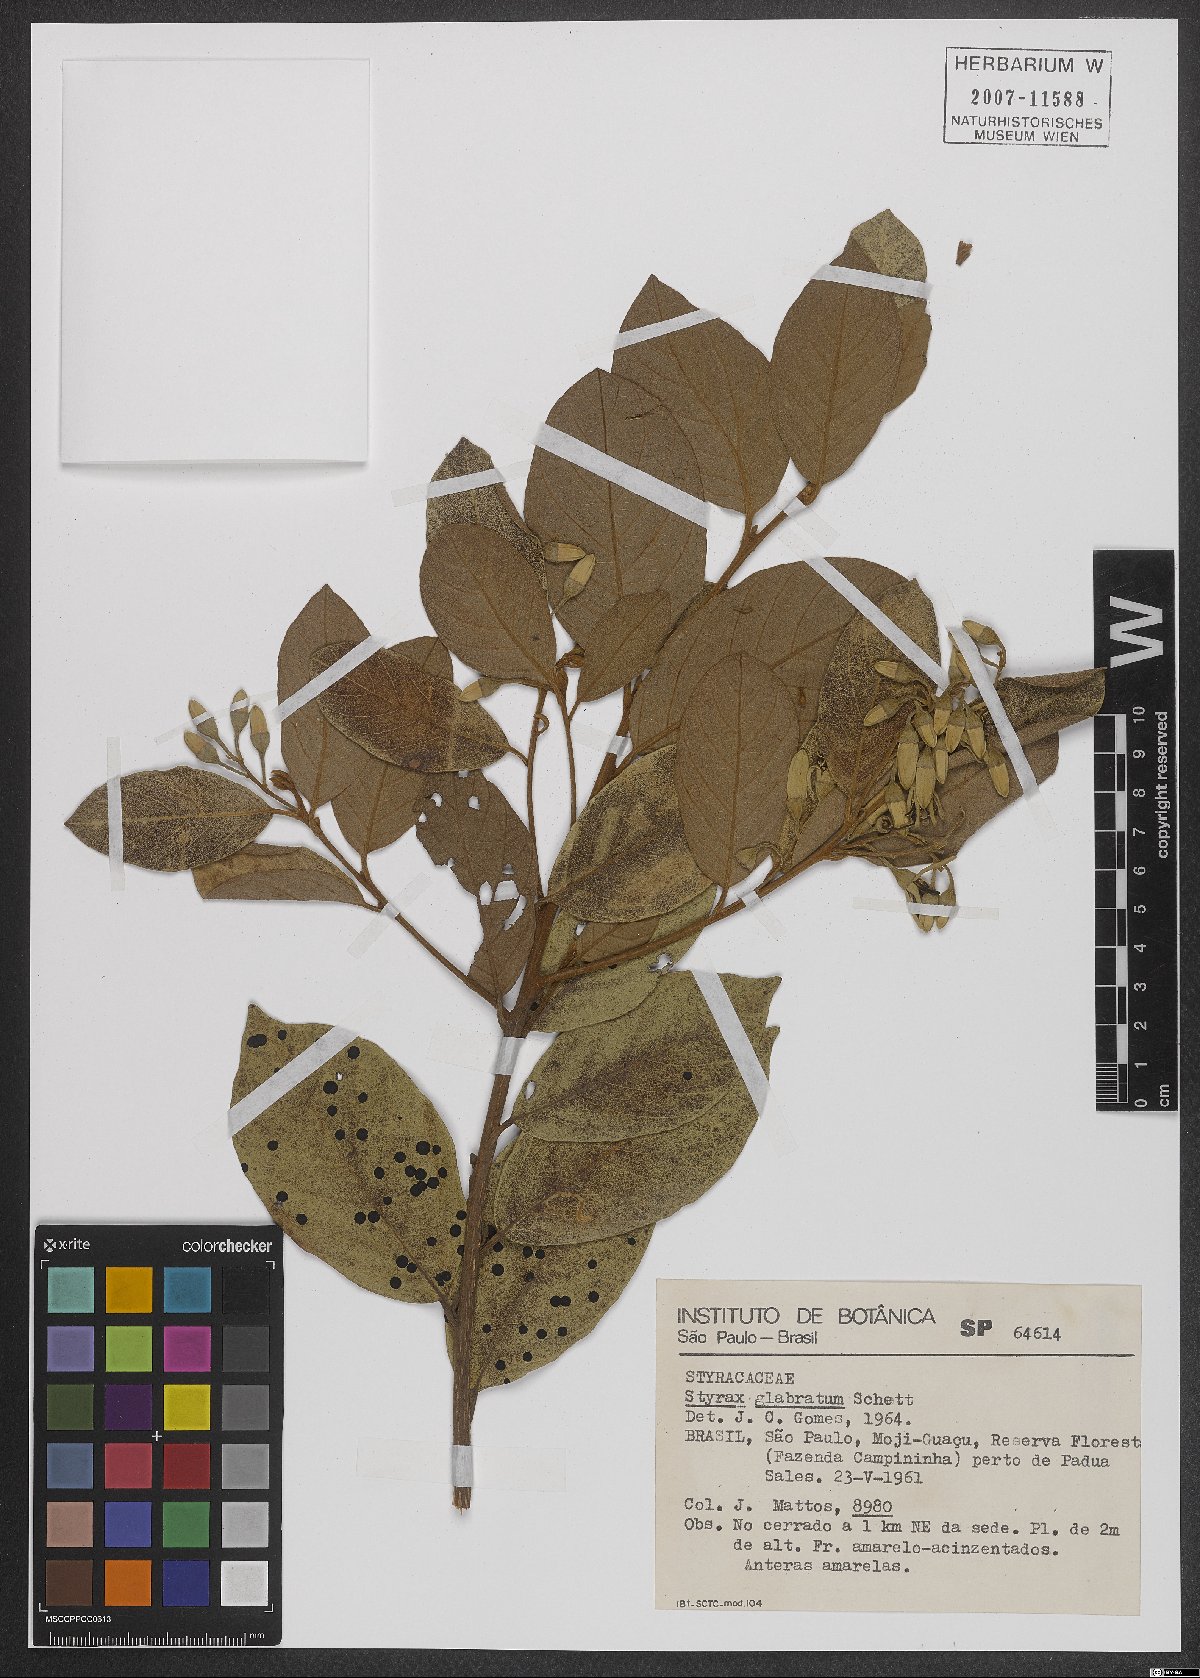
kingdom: Plantae
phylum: Tracheophyta
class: Magnoliopsida
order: Ericales
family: Styracaceae
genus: Styrax
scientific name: Styrax glabratus
